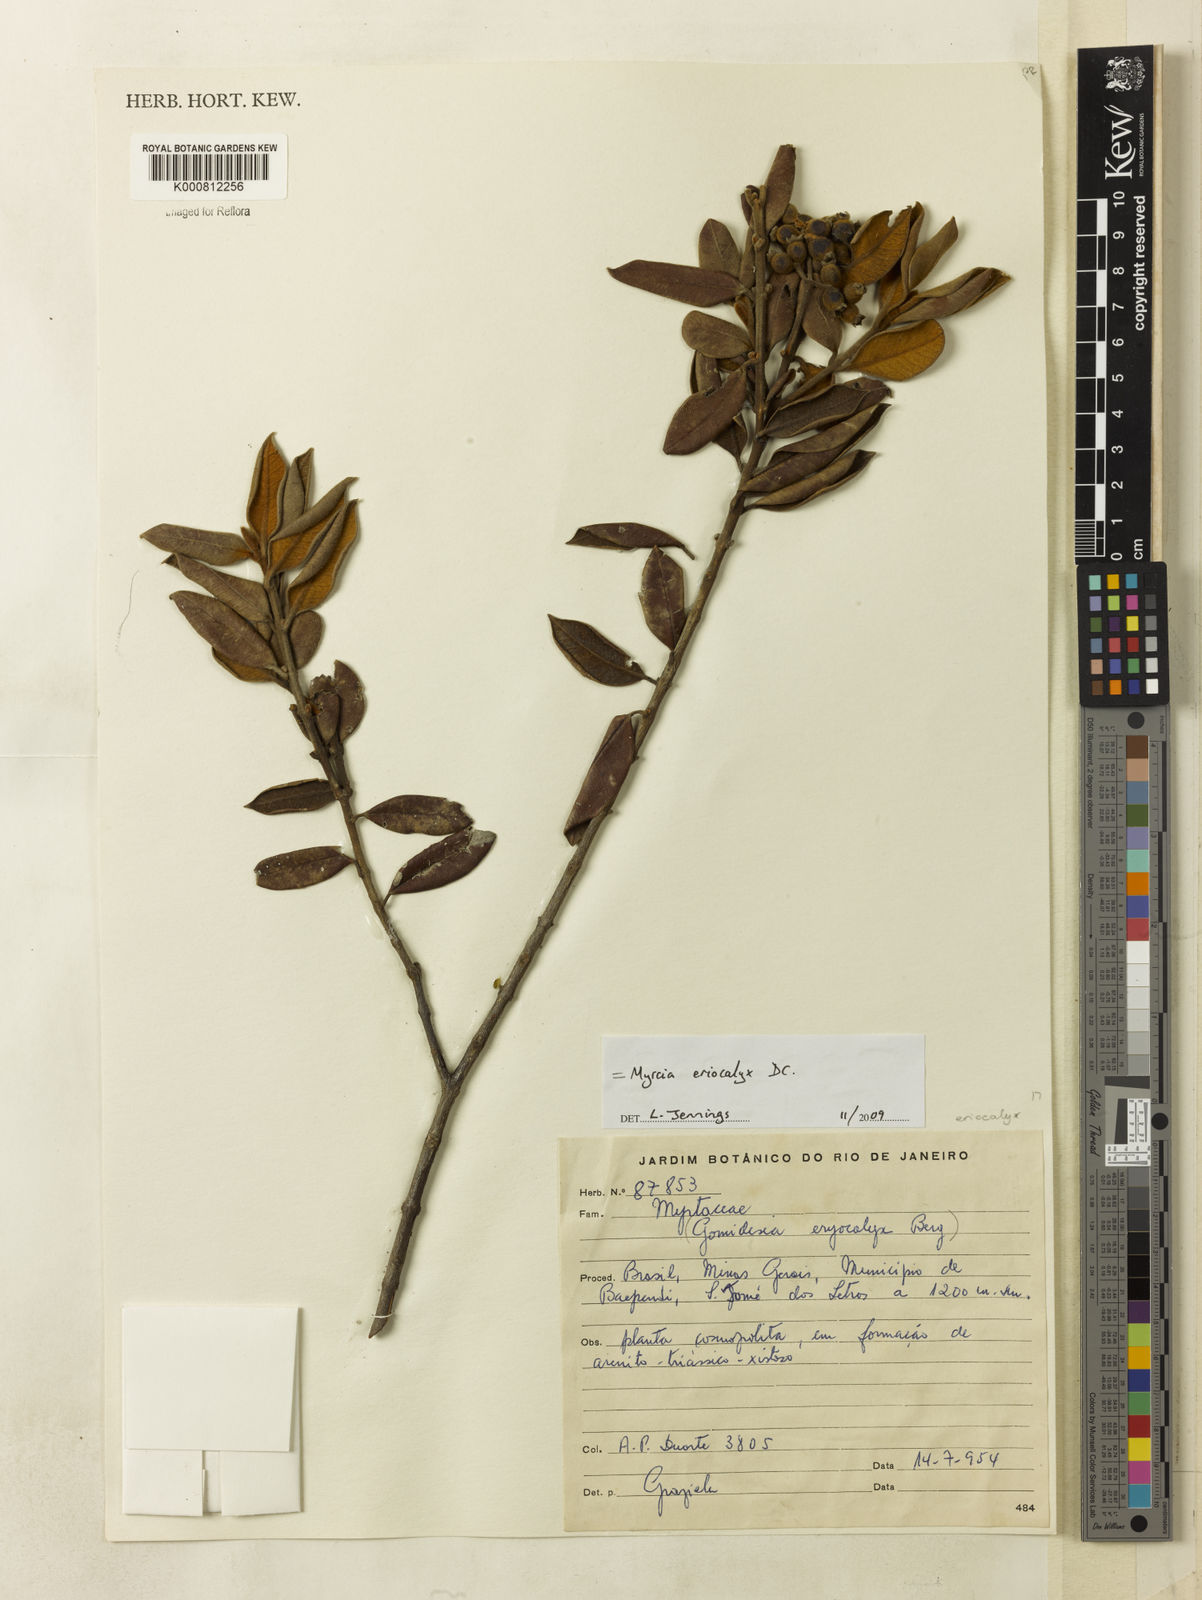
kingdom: Plantae
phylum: Tracheophyta
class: Magnoliopsida
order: Myrtales
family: Myrtaceae
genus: Myrcia
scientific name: Myrcia eriocalyx
